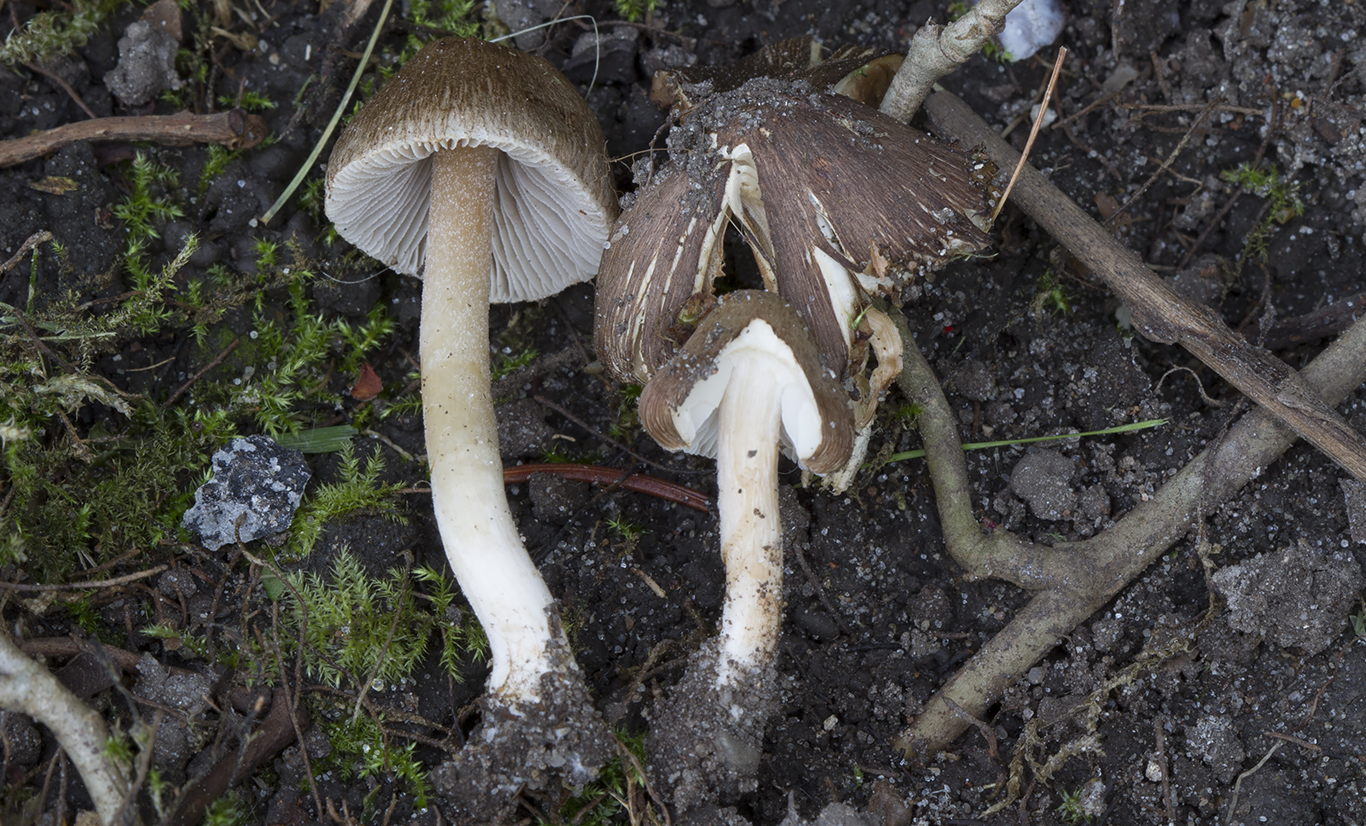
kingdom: Fungi
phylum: Basidiomycota
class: Agaricomycetes
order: Agaricales
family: Inocybaceae
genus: Inocybe
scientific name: Inocybe
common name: trævlhat
